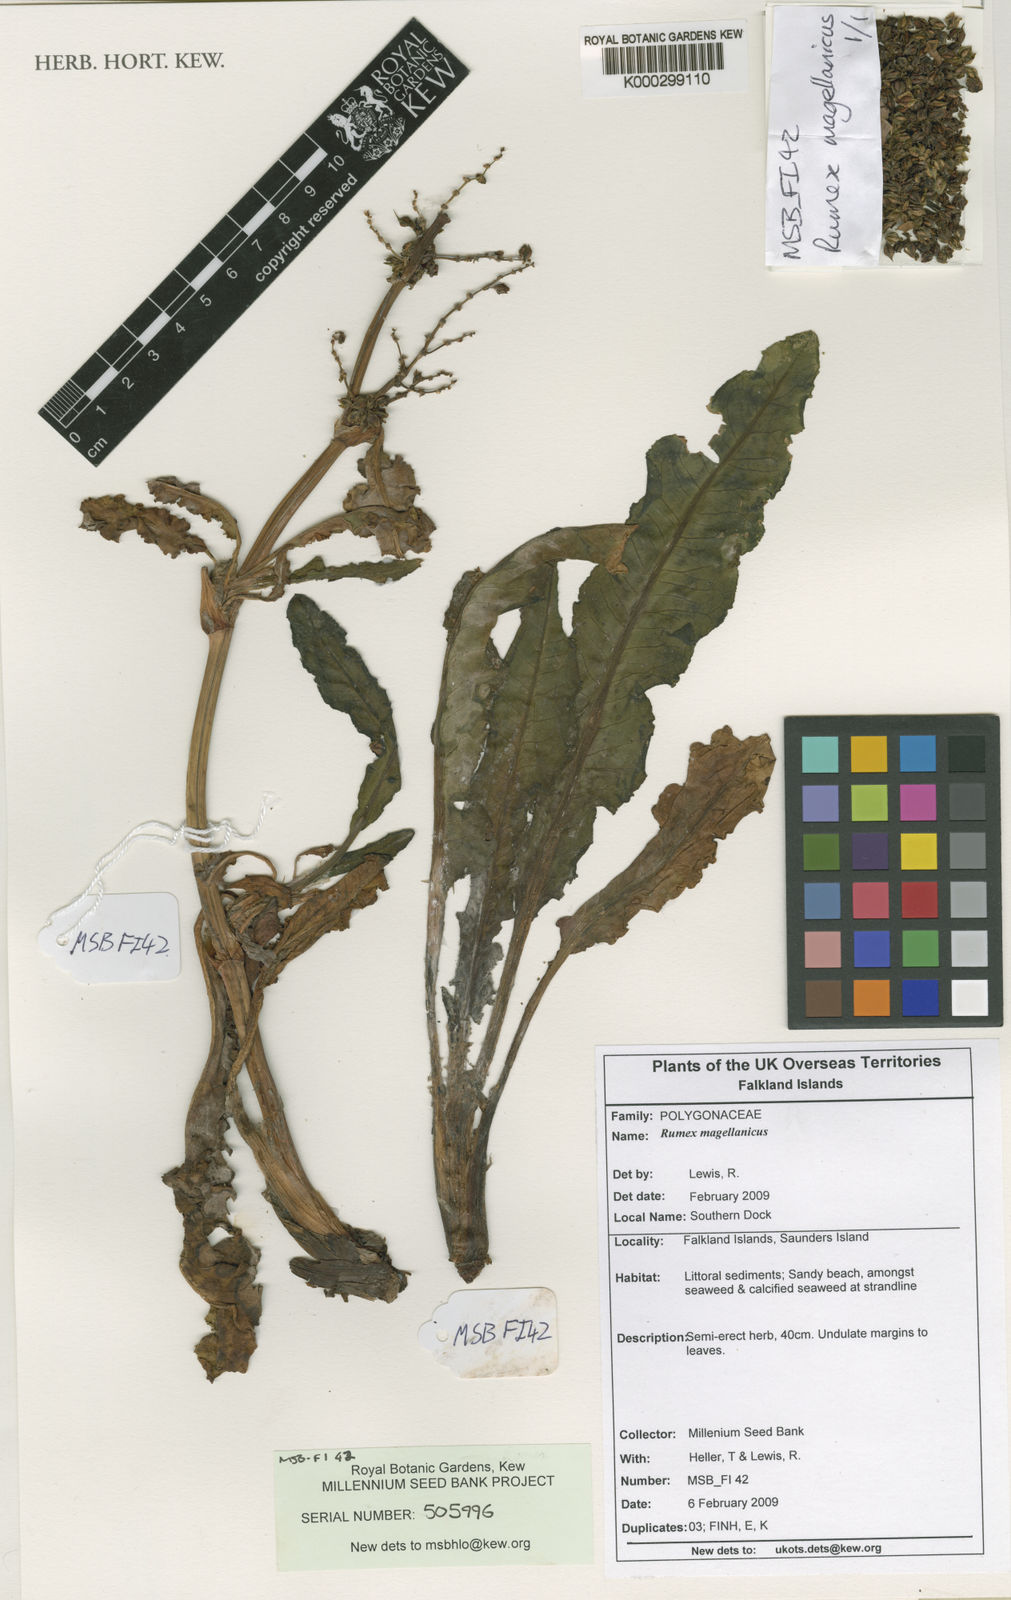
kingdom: Plantae
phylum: Tracheophyta
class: Magnoliopsida
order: Caryophyllales
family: Polygonaceae
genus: Rumex
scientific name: Rumex crispus
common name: Curled dock
